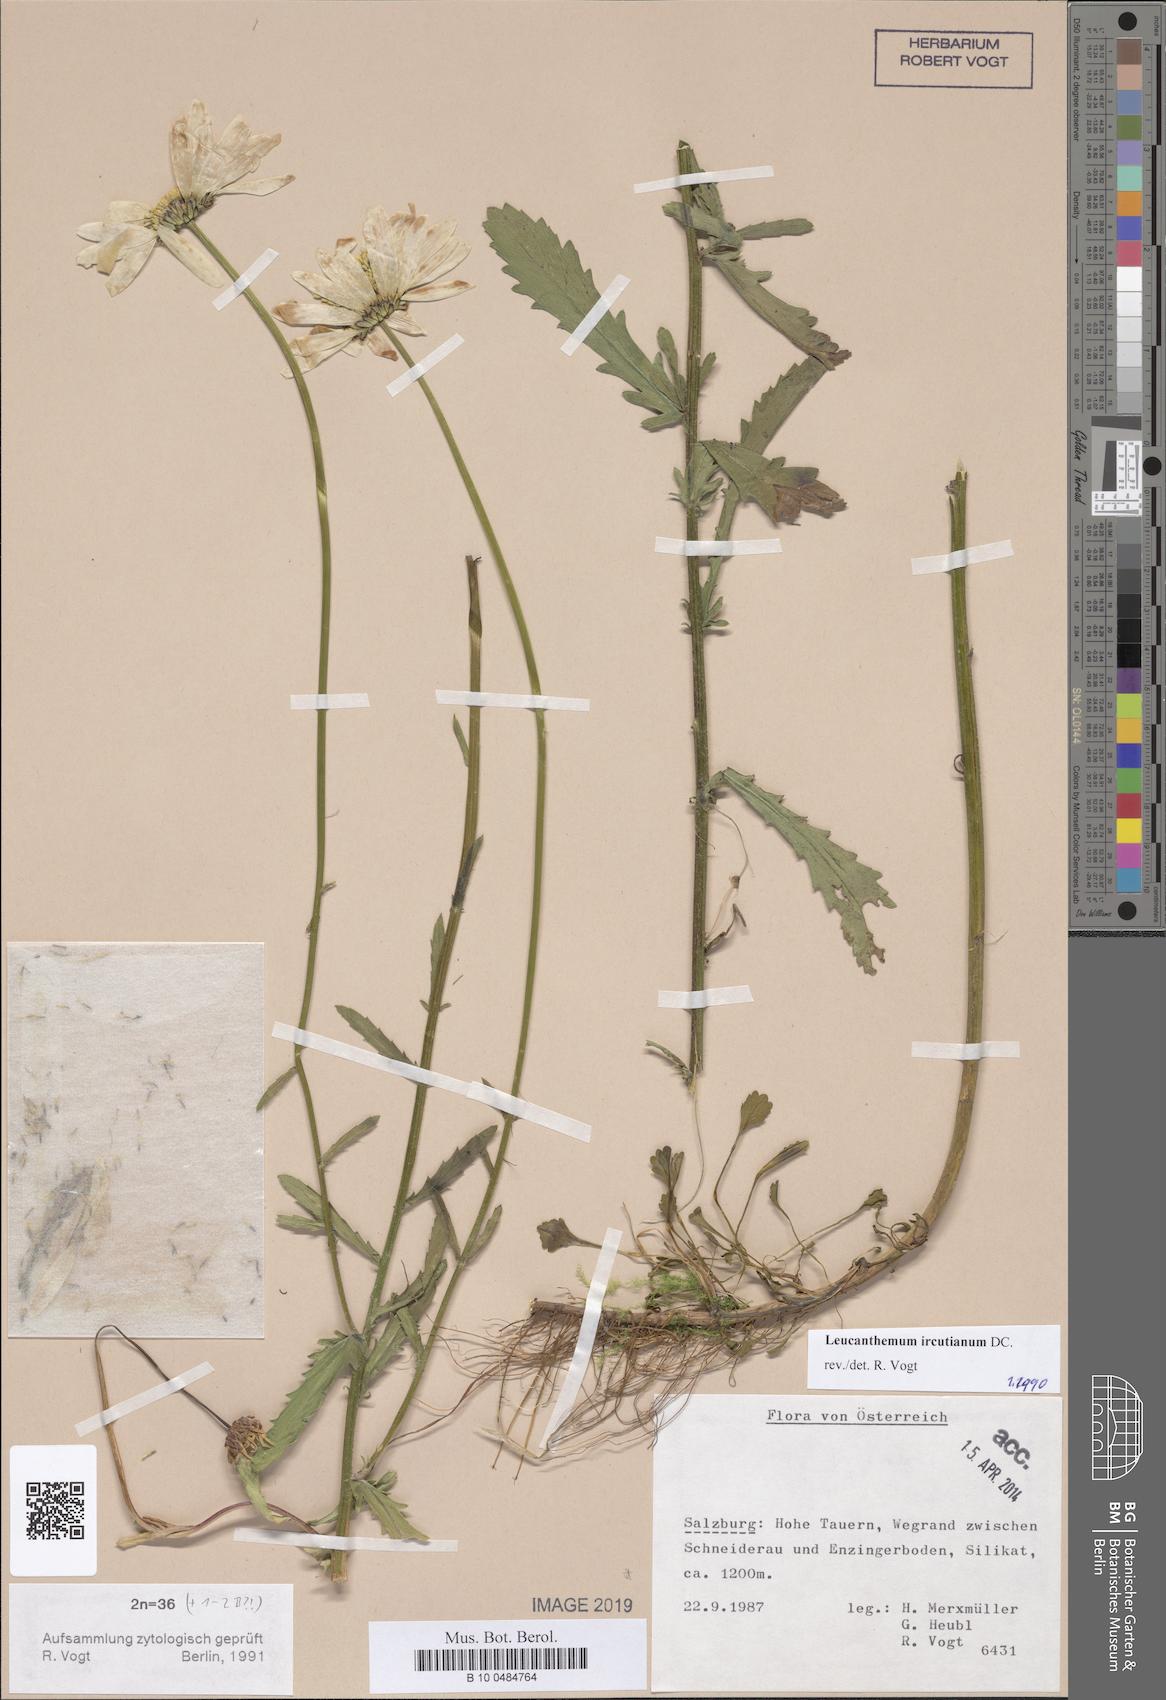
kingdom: Plantae
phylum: Tracheophyta
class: Magnoliopsida
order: Asterales
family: Asteraceae
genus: Leucanthemum
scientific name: Leucanthemum ircutianum
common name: Daisy
